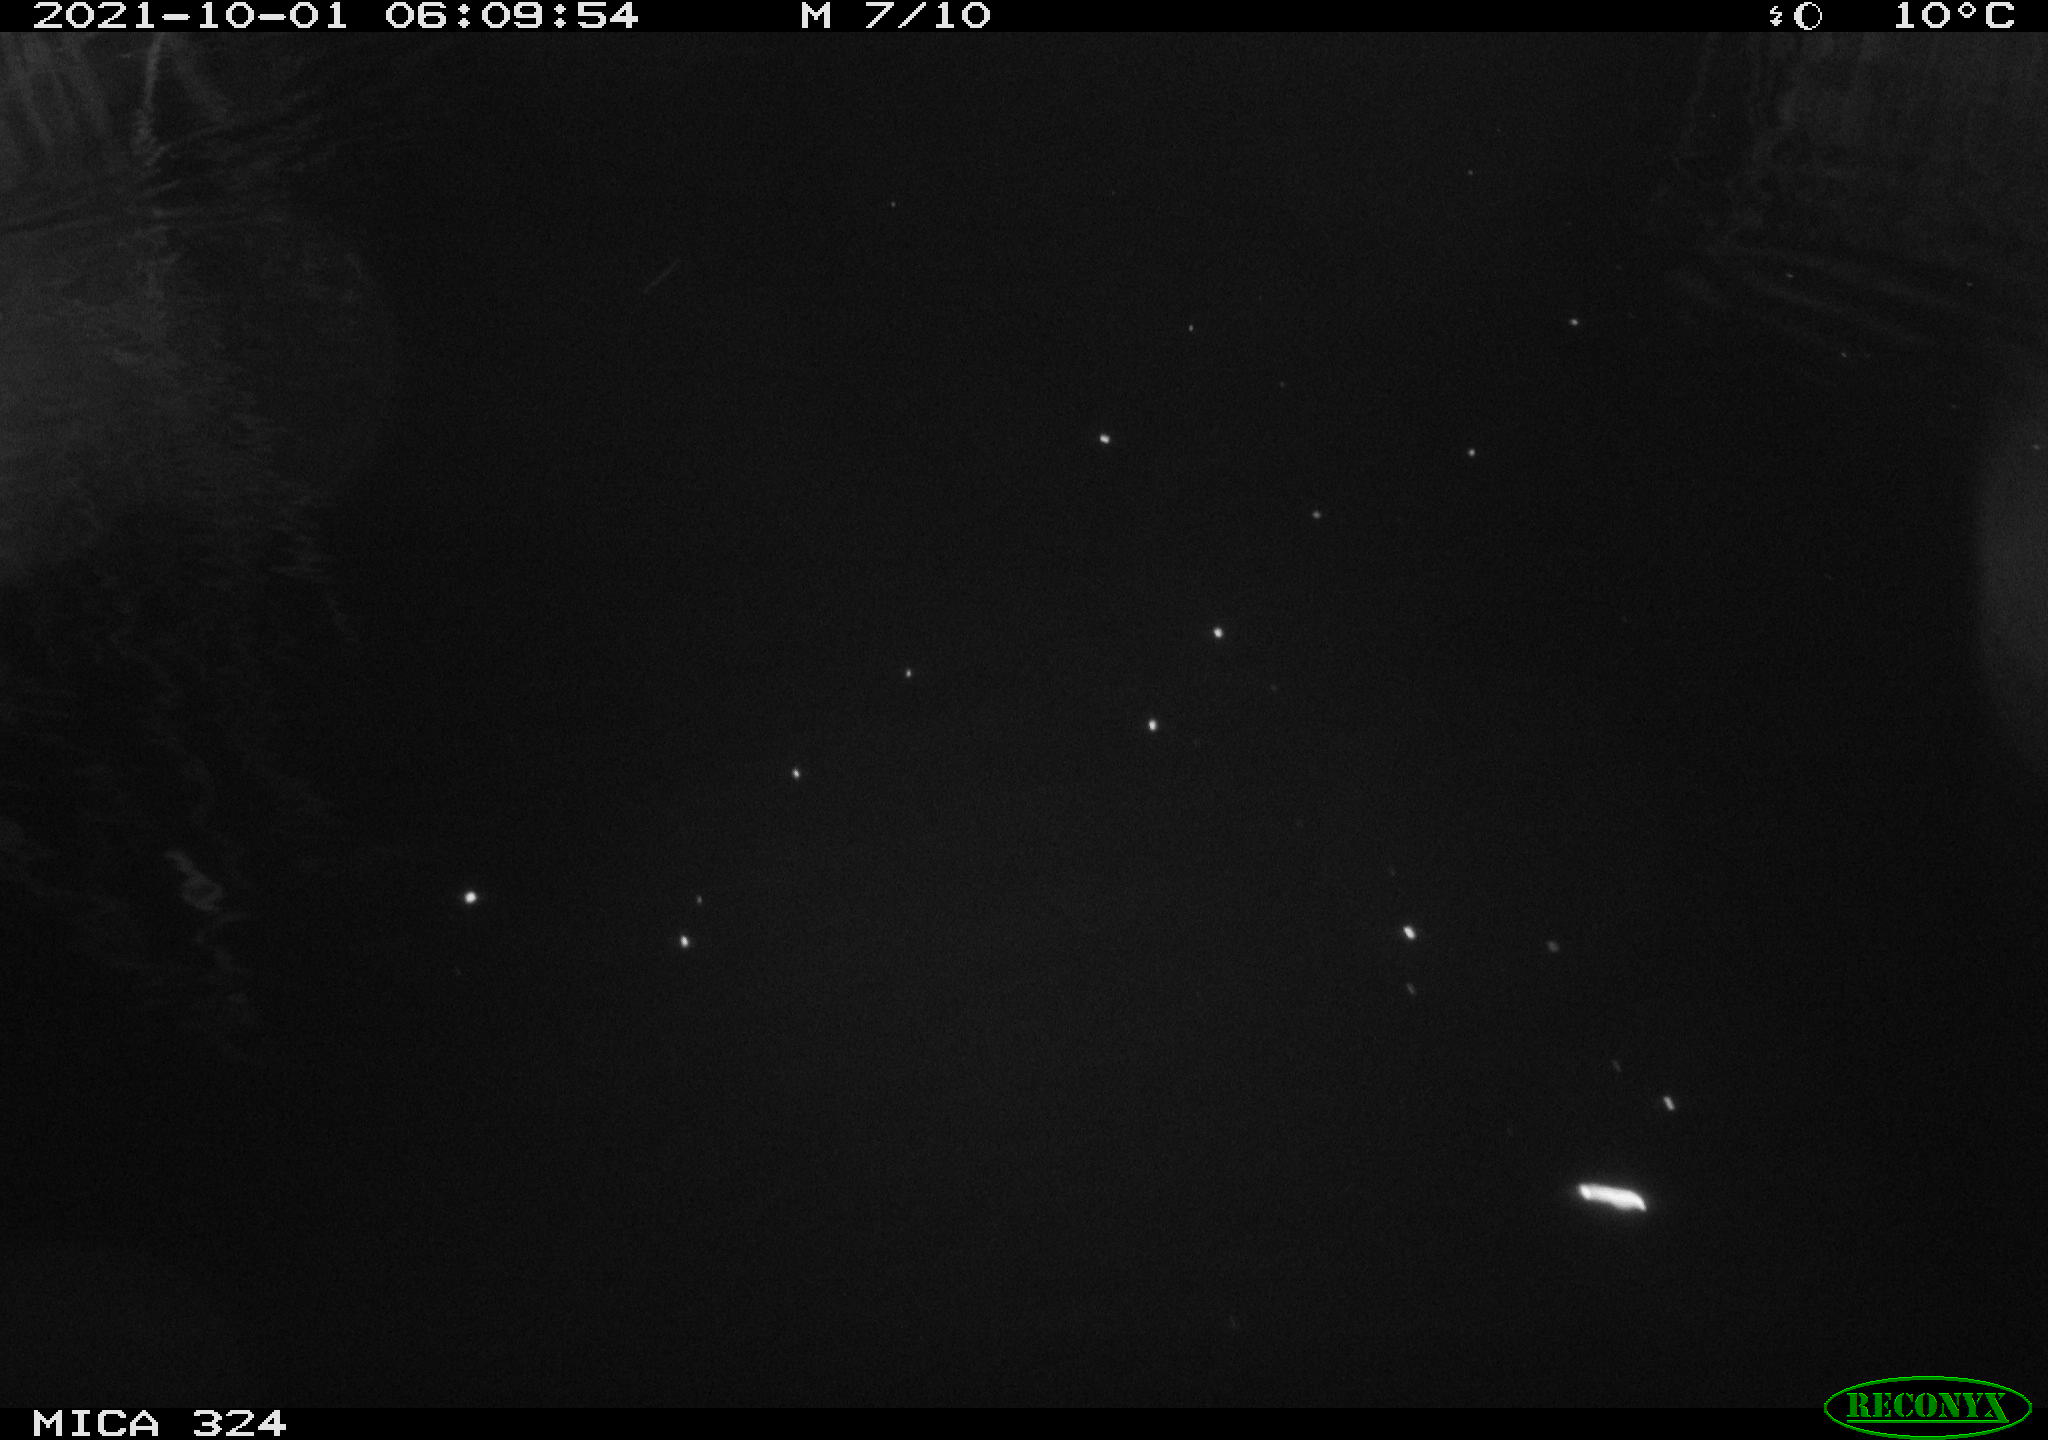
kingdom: Animalia
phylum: Chordata
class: Mammalia
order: Rodentia
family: Cricetidae
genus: Ondatra
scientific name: Ondatra zibethicus
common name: Muskrat
